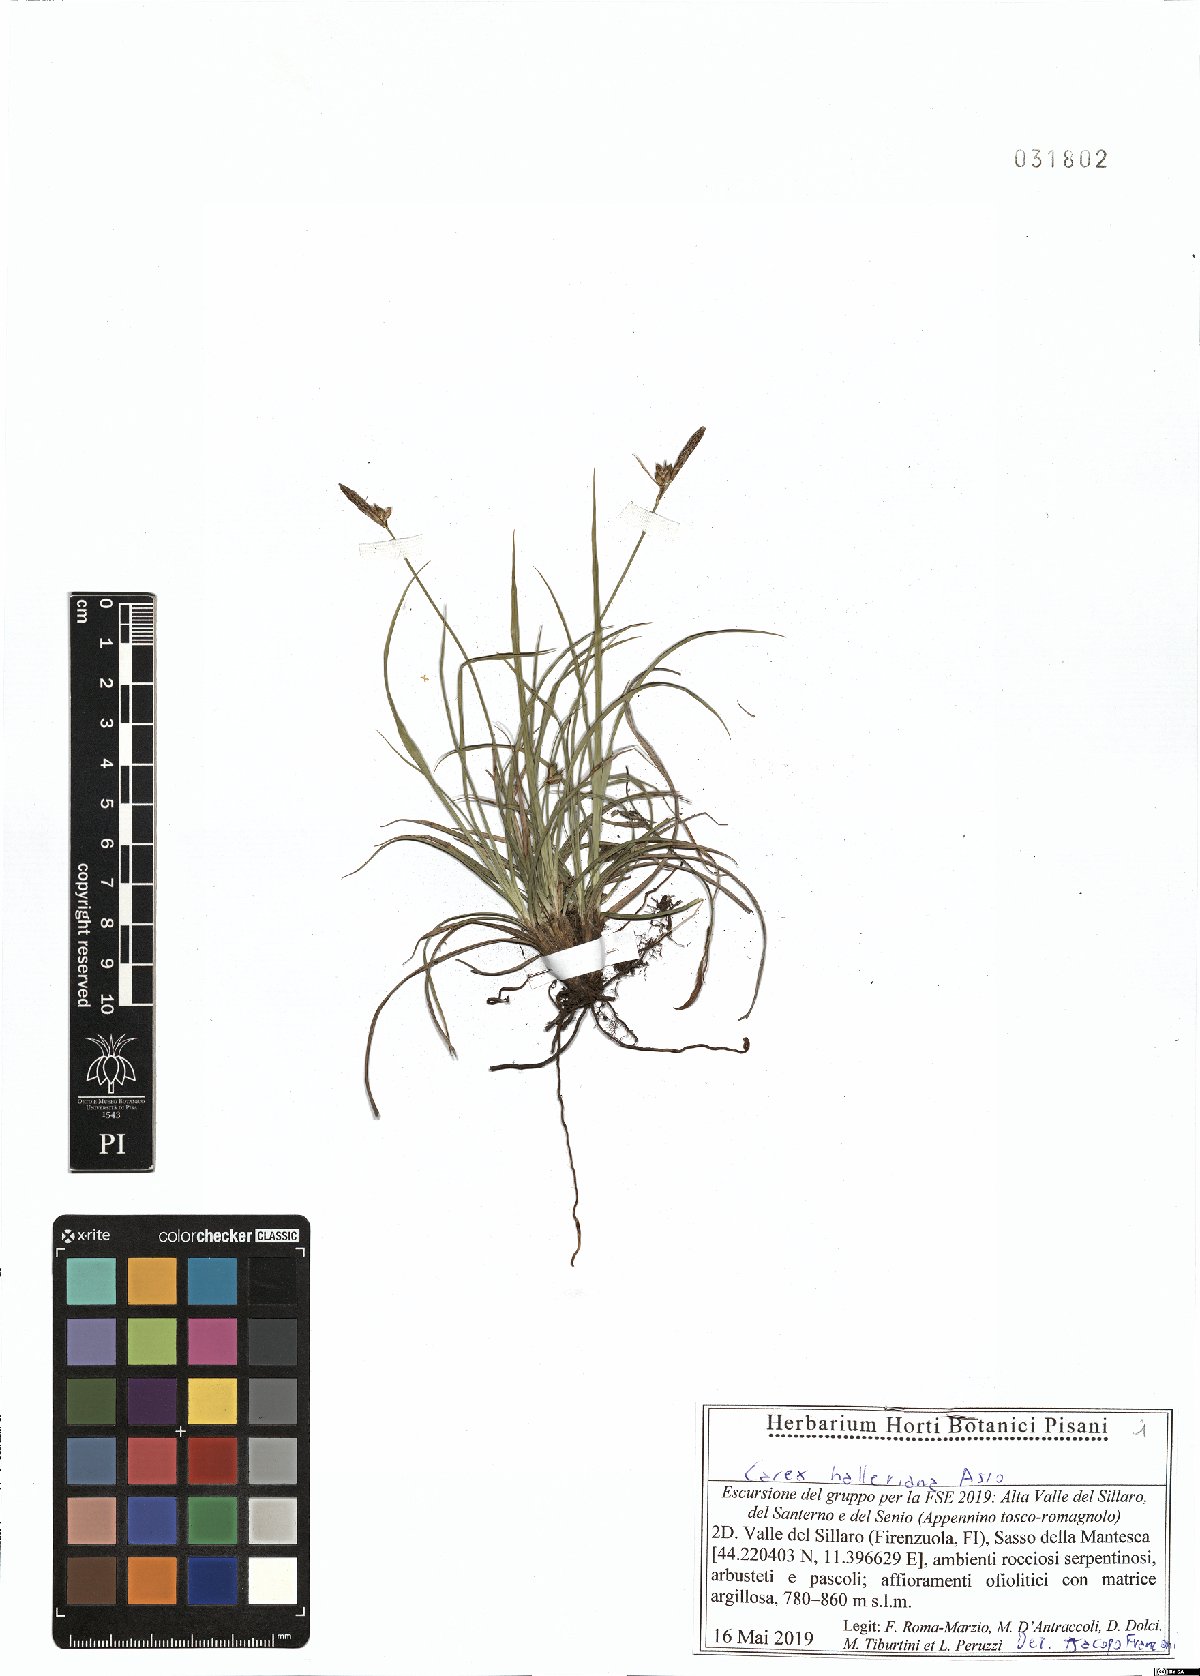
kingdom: Plantae
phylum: Tracheophyta
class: Liliopsida
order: Poales
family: Cyperaceae
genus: Carex
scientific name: Carex halleriana
